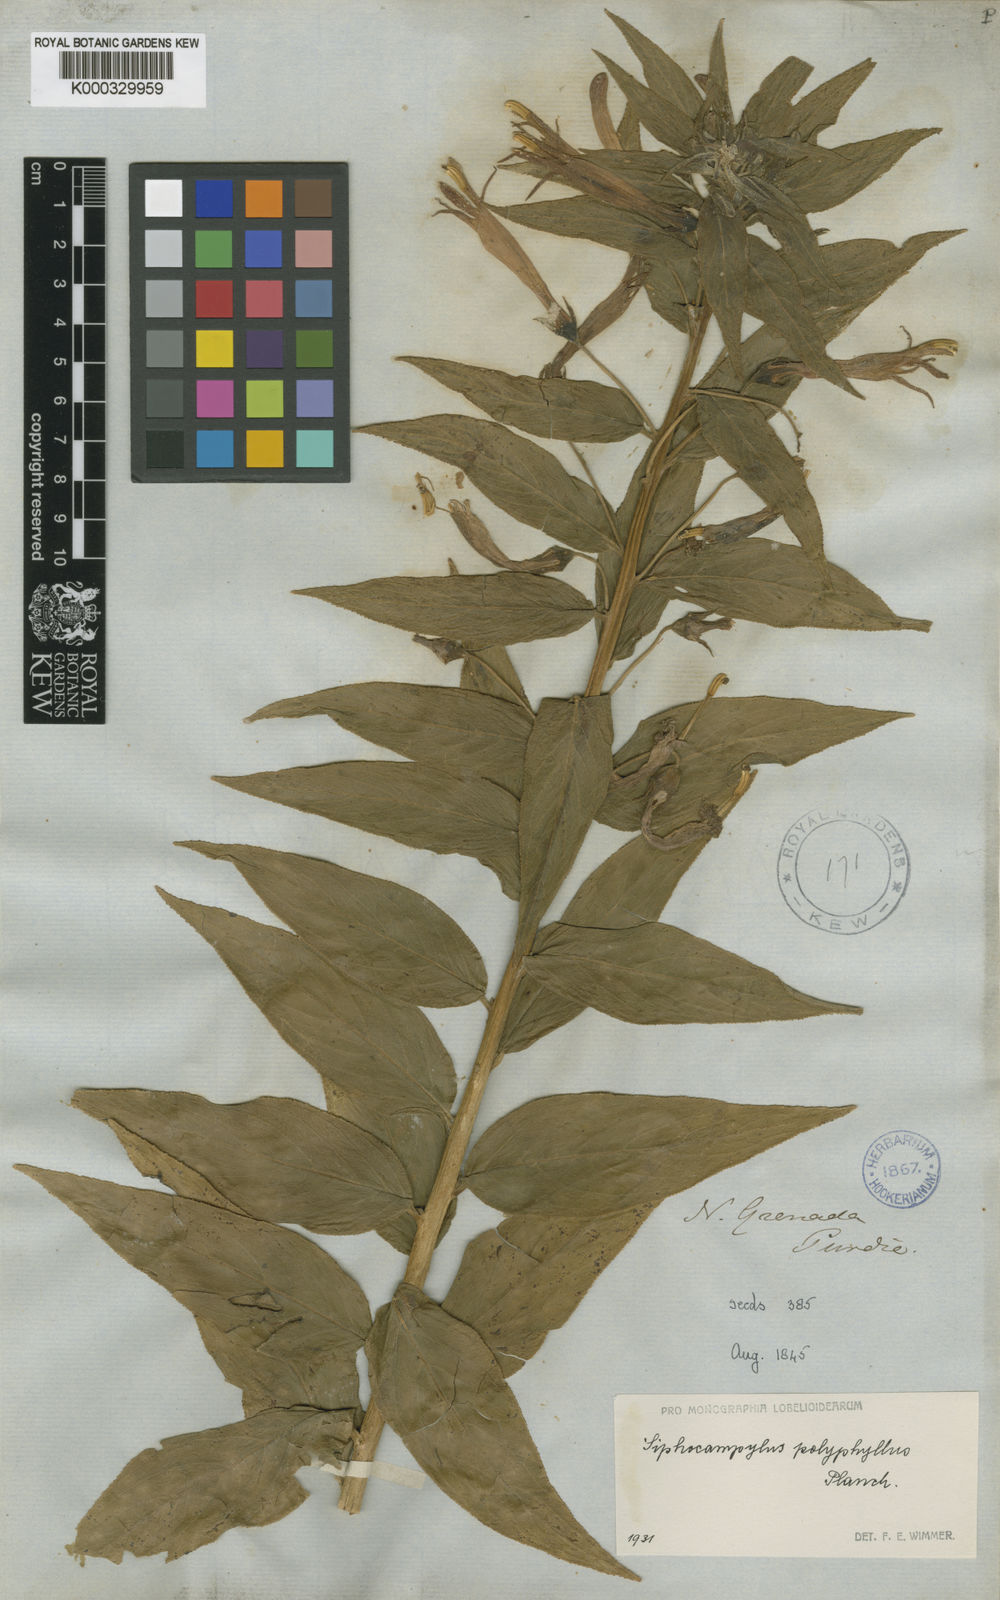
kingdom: Plantae
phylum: Tracheophyta
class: Magnoliopsida
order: Asterales
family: Campanulaceae
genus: Siphocampylus
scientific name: Siphocampylus polyphyllus
